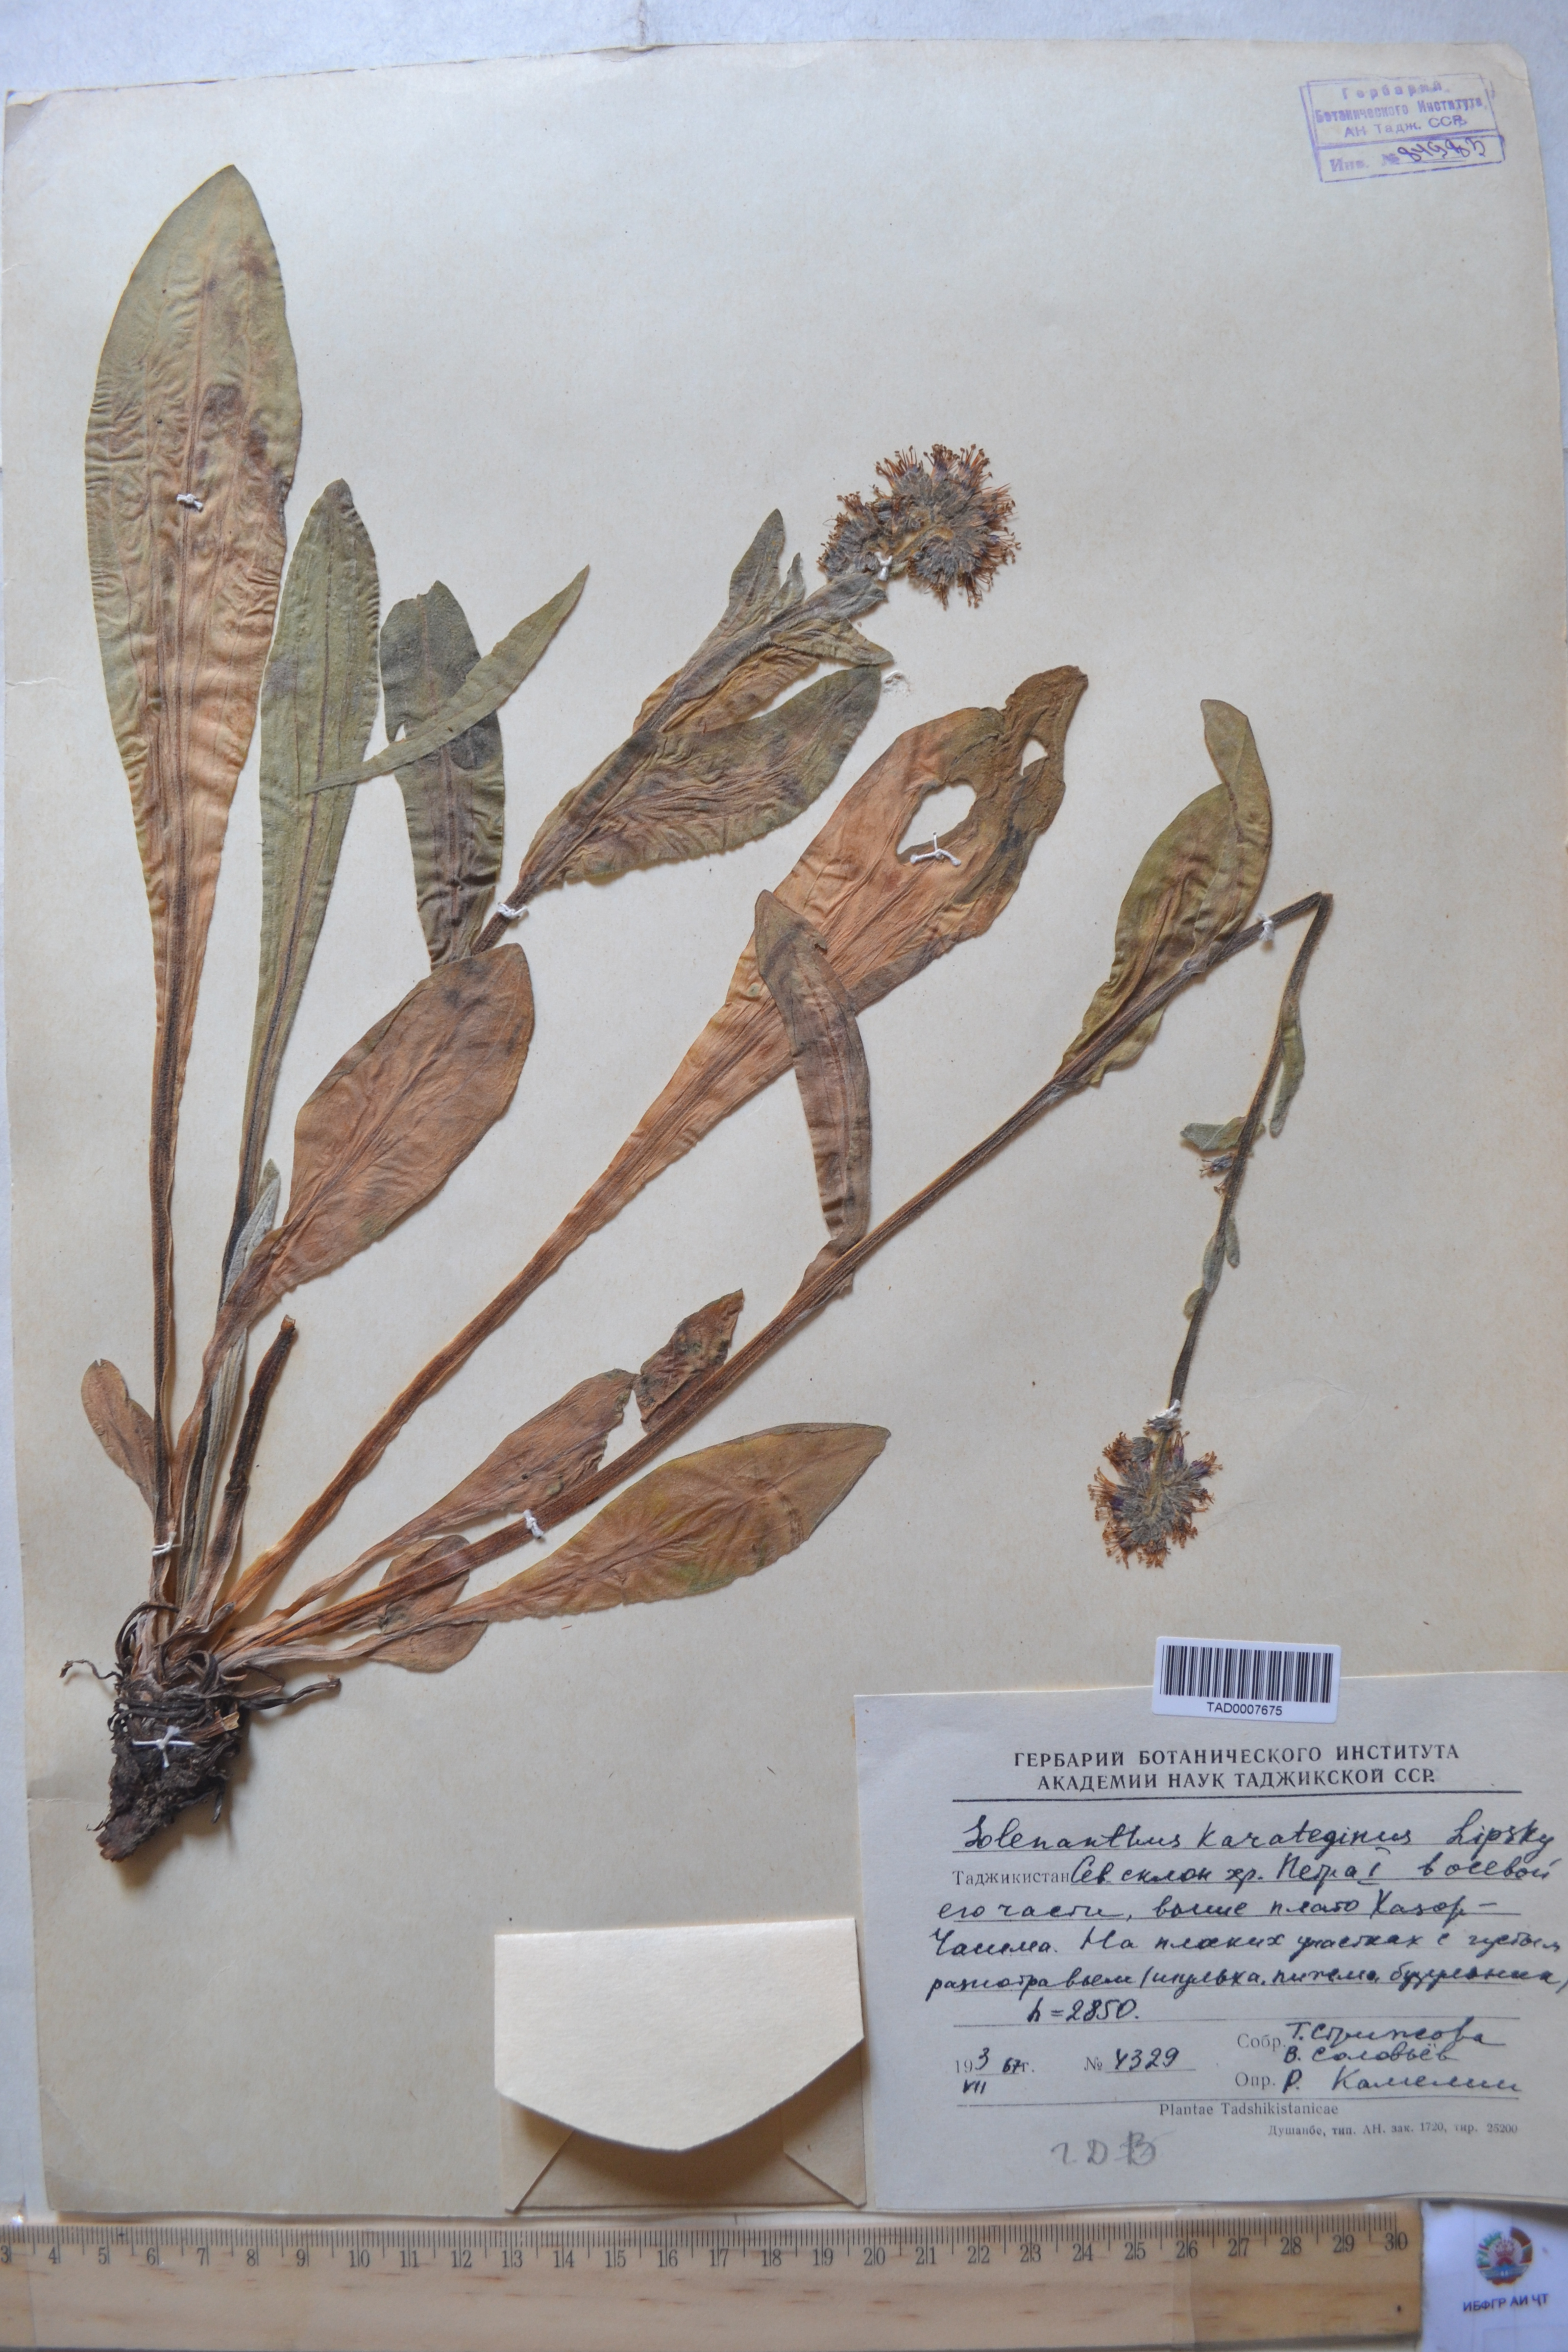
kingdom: Plantae
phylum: Tracheophyta
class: Magnoliopsida
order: Boraginales
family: Boraginaceae
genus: Solenanthus
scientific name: Solenanthus karateginus
